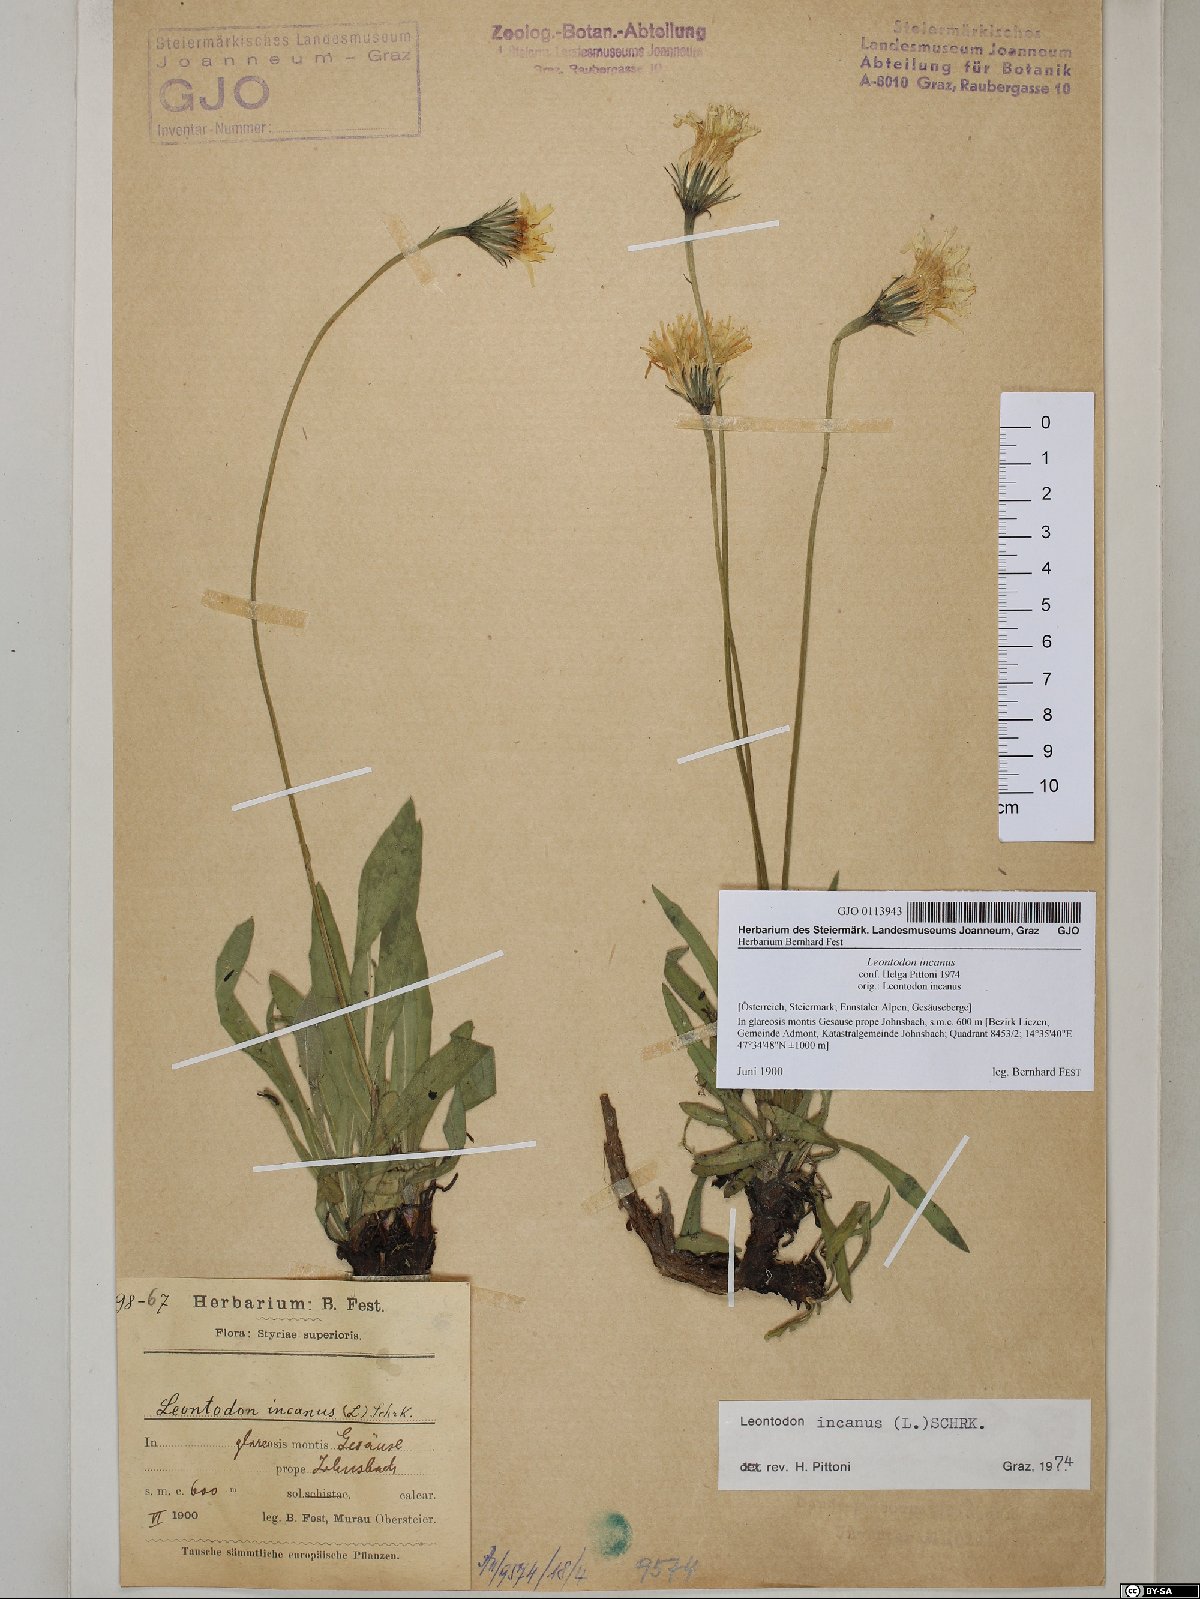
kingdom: Plantae
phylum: Tracheophyta
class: Magnoliopsida
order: Asterales
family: Asteraceae
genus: Leontodon
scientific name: Leontodon incanus
